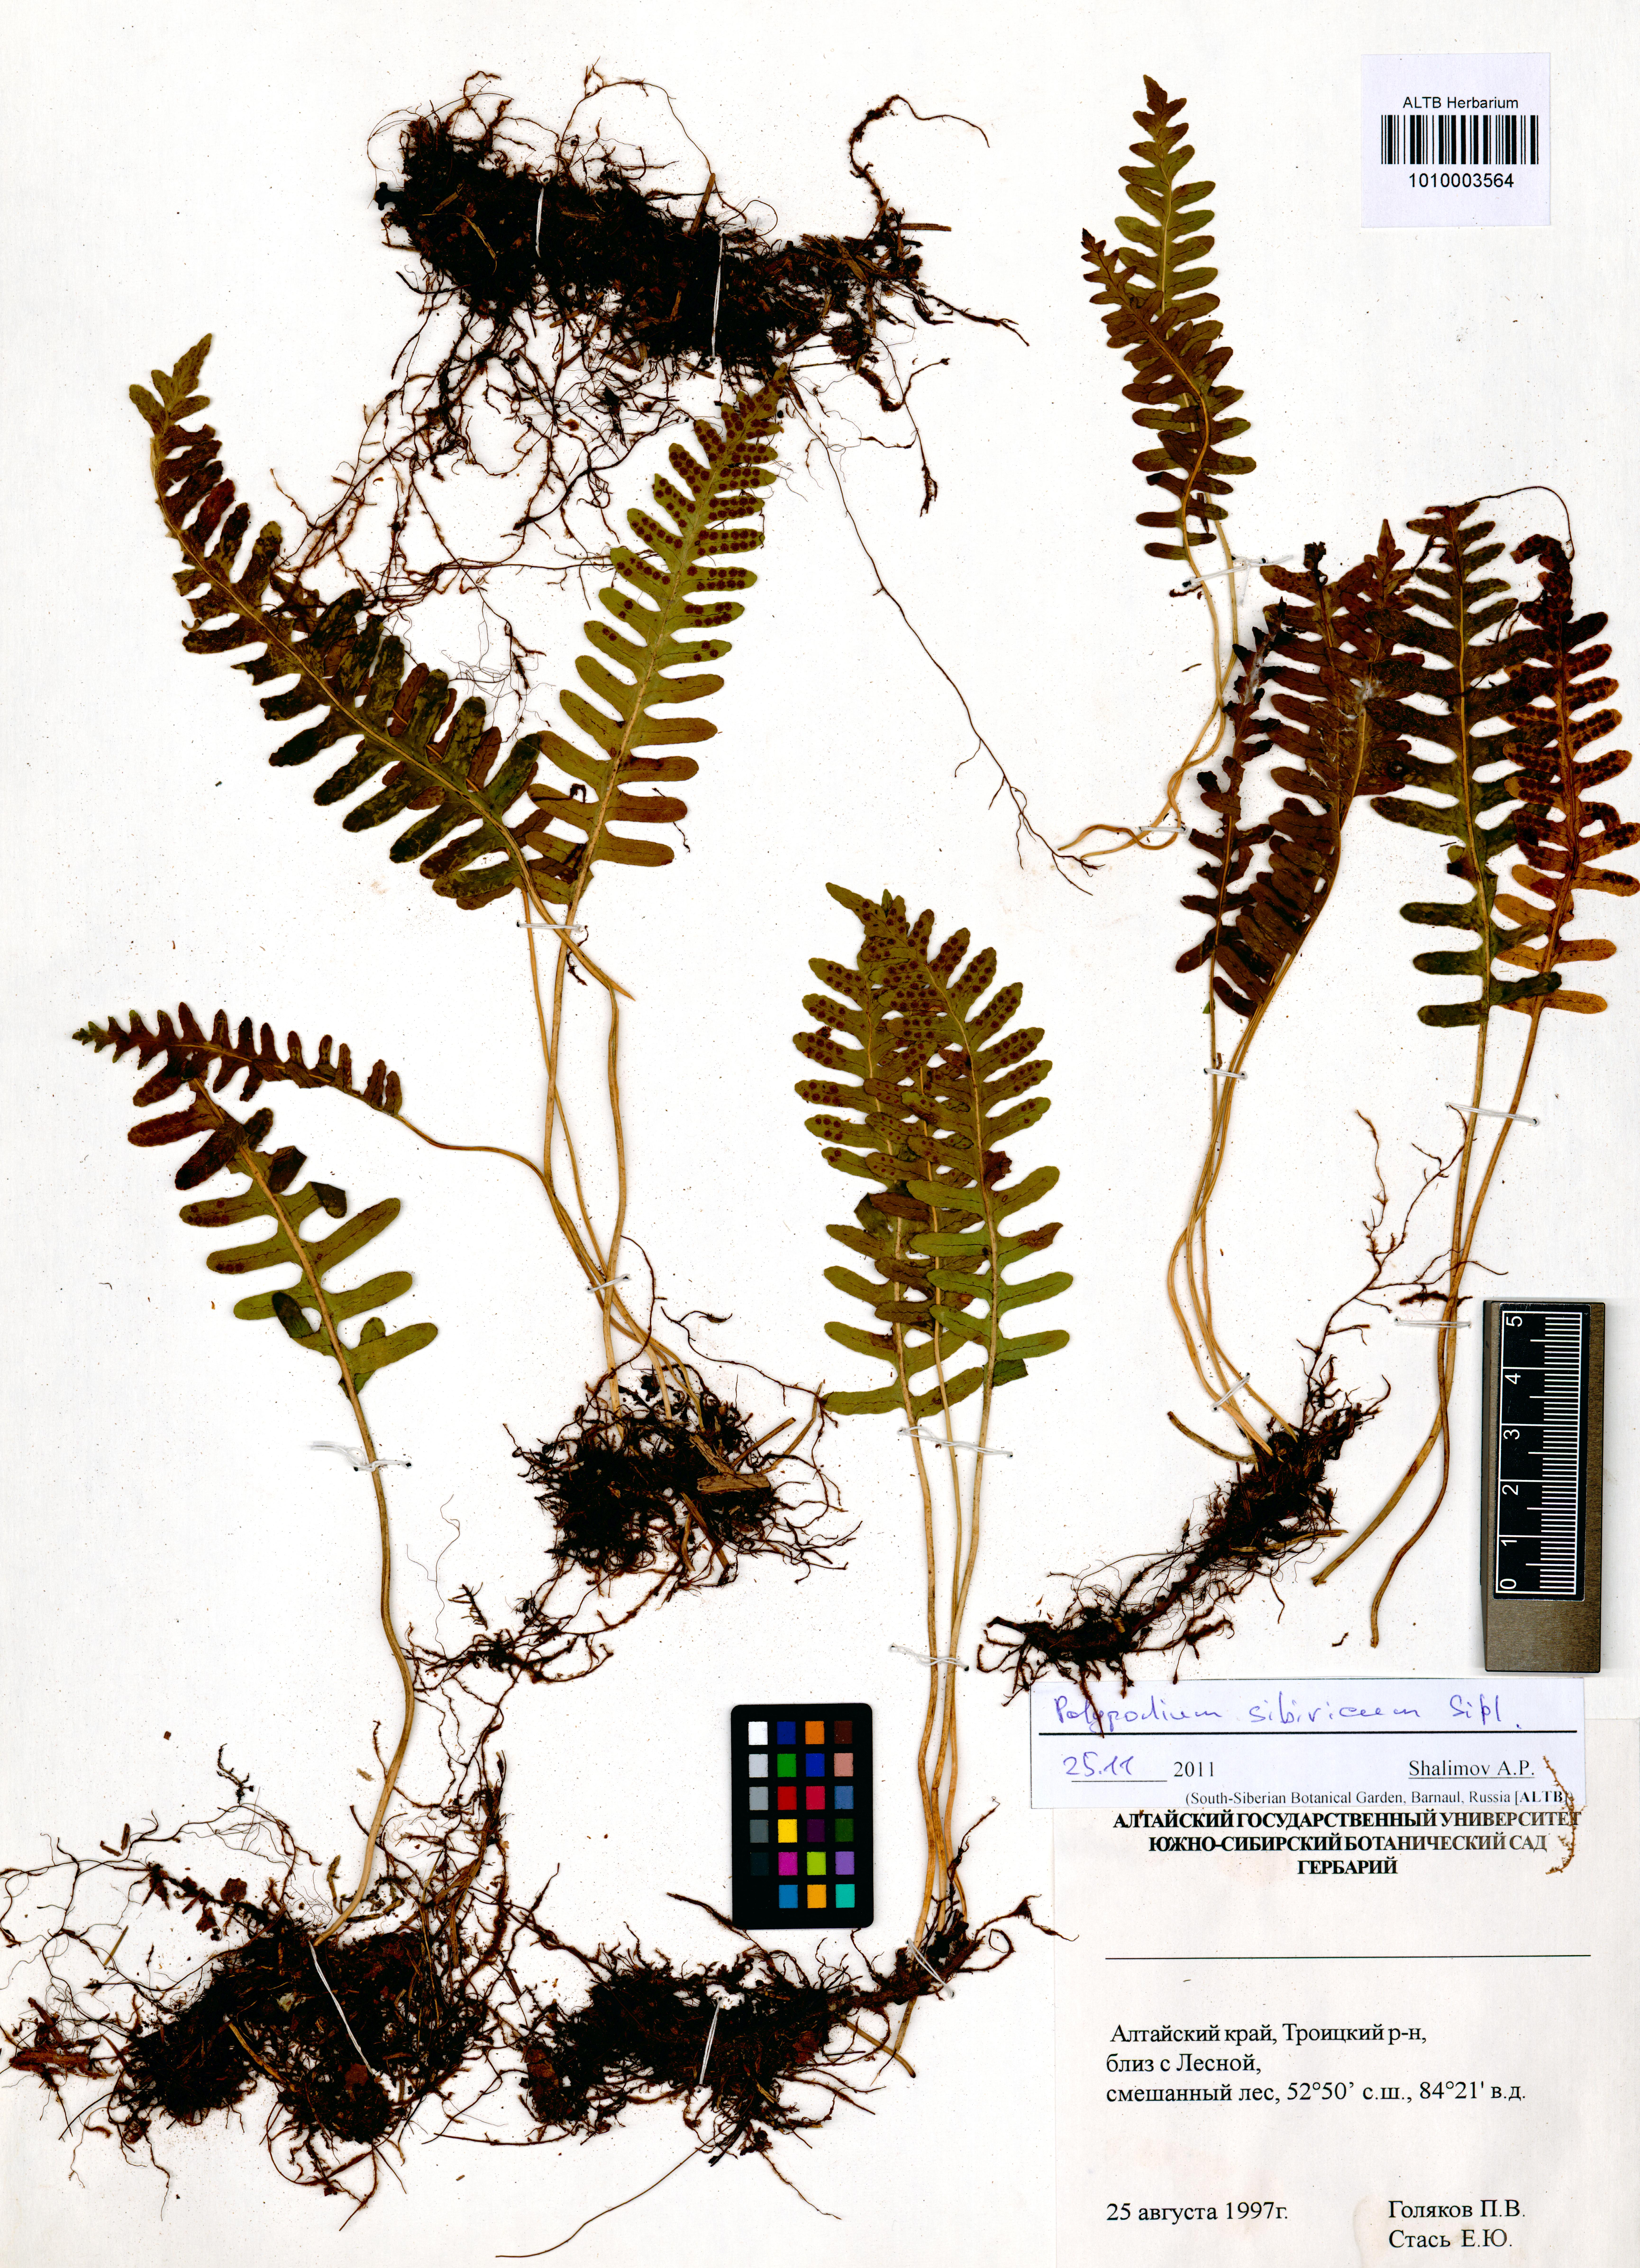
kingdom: Plantae
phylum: Tracheophyta
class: Polypodiopsida
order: Polypodiales
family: Polypodiaceae
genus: Polypodium
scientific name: Polypodium sibiricum
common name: Siberian polypody
